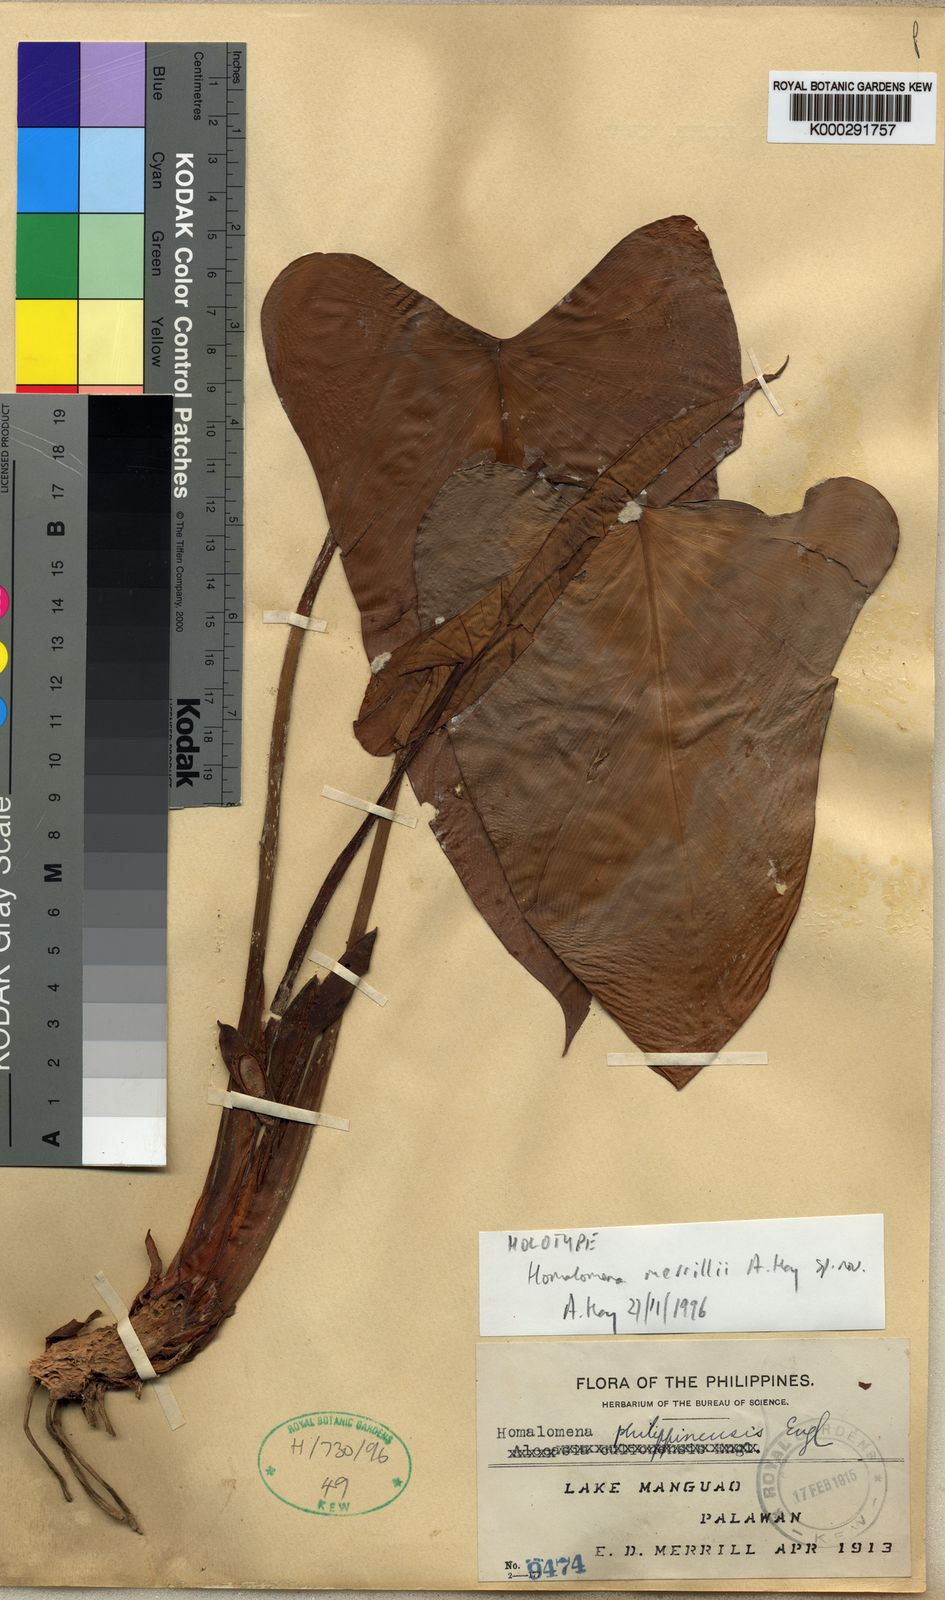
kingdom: Plantae
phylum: Tracheophyta
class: Liliopsida
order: Alismatales
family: Araceae
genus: Homalomena
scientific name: Homalomena
